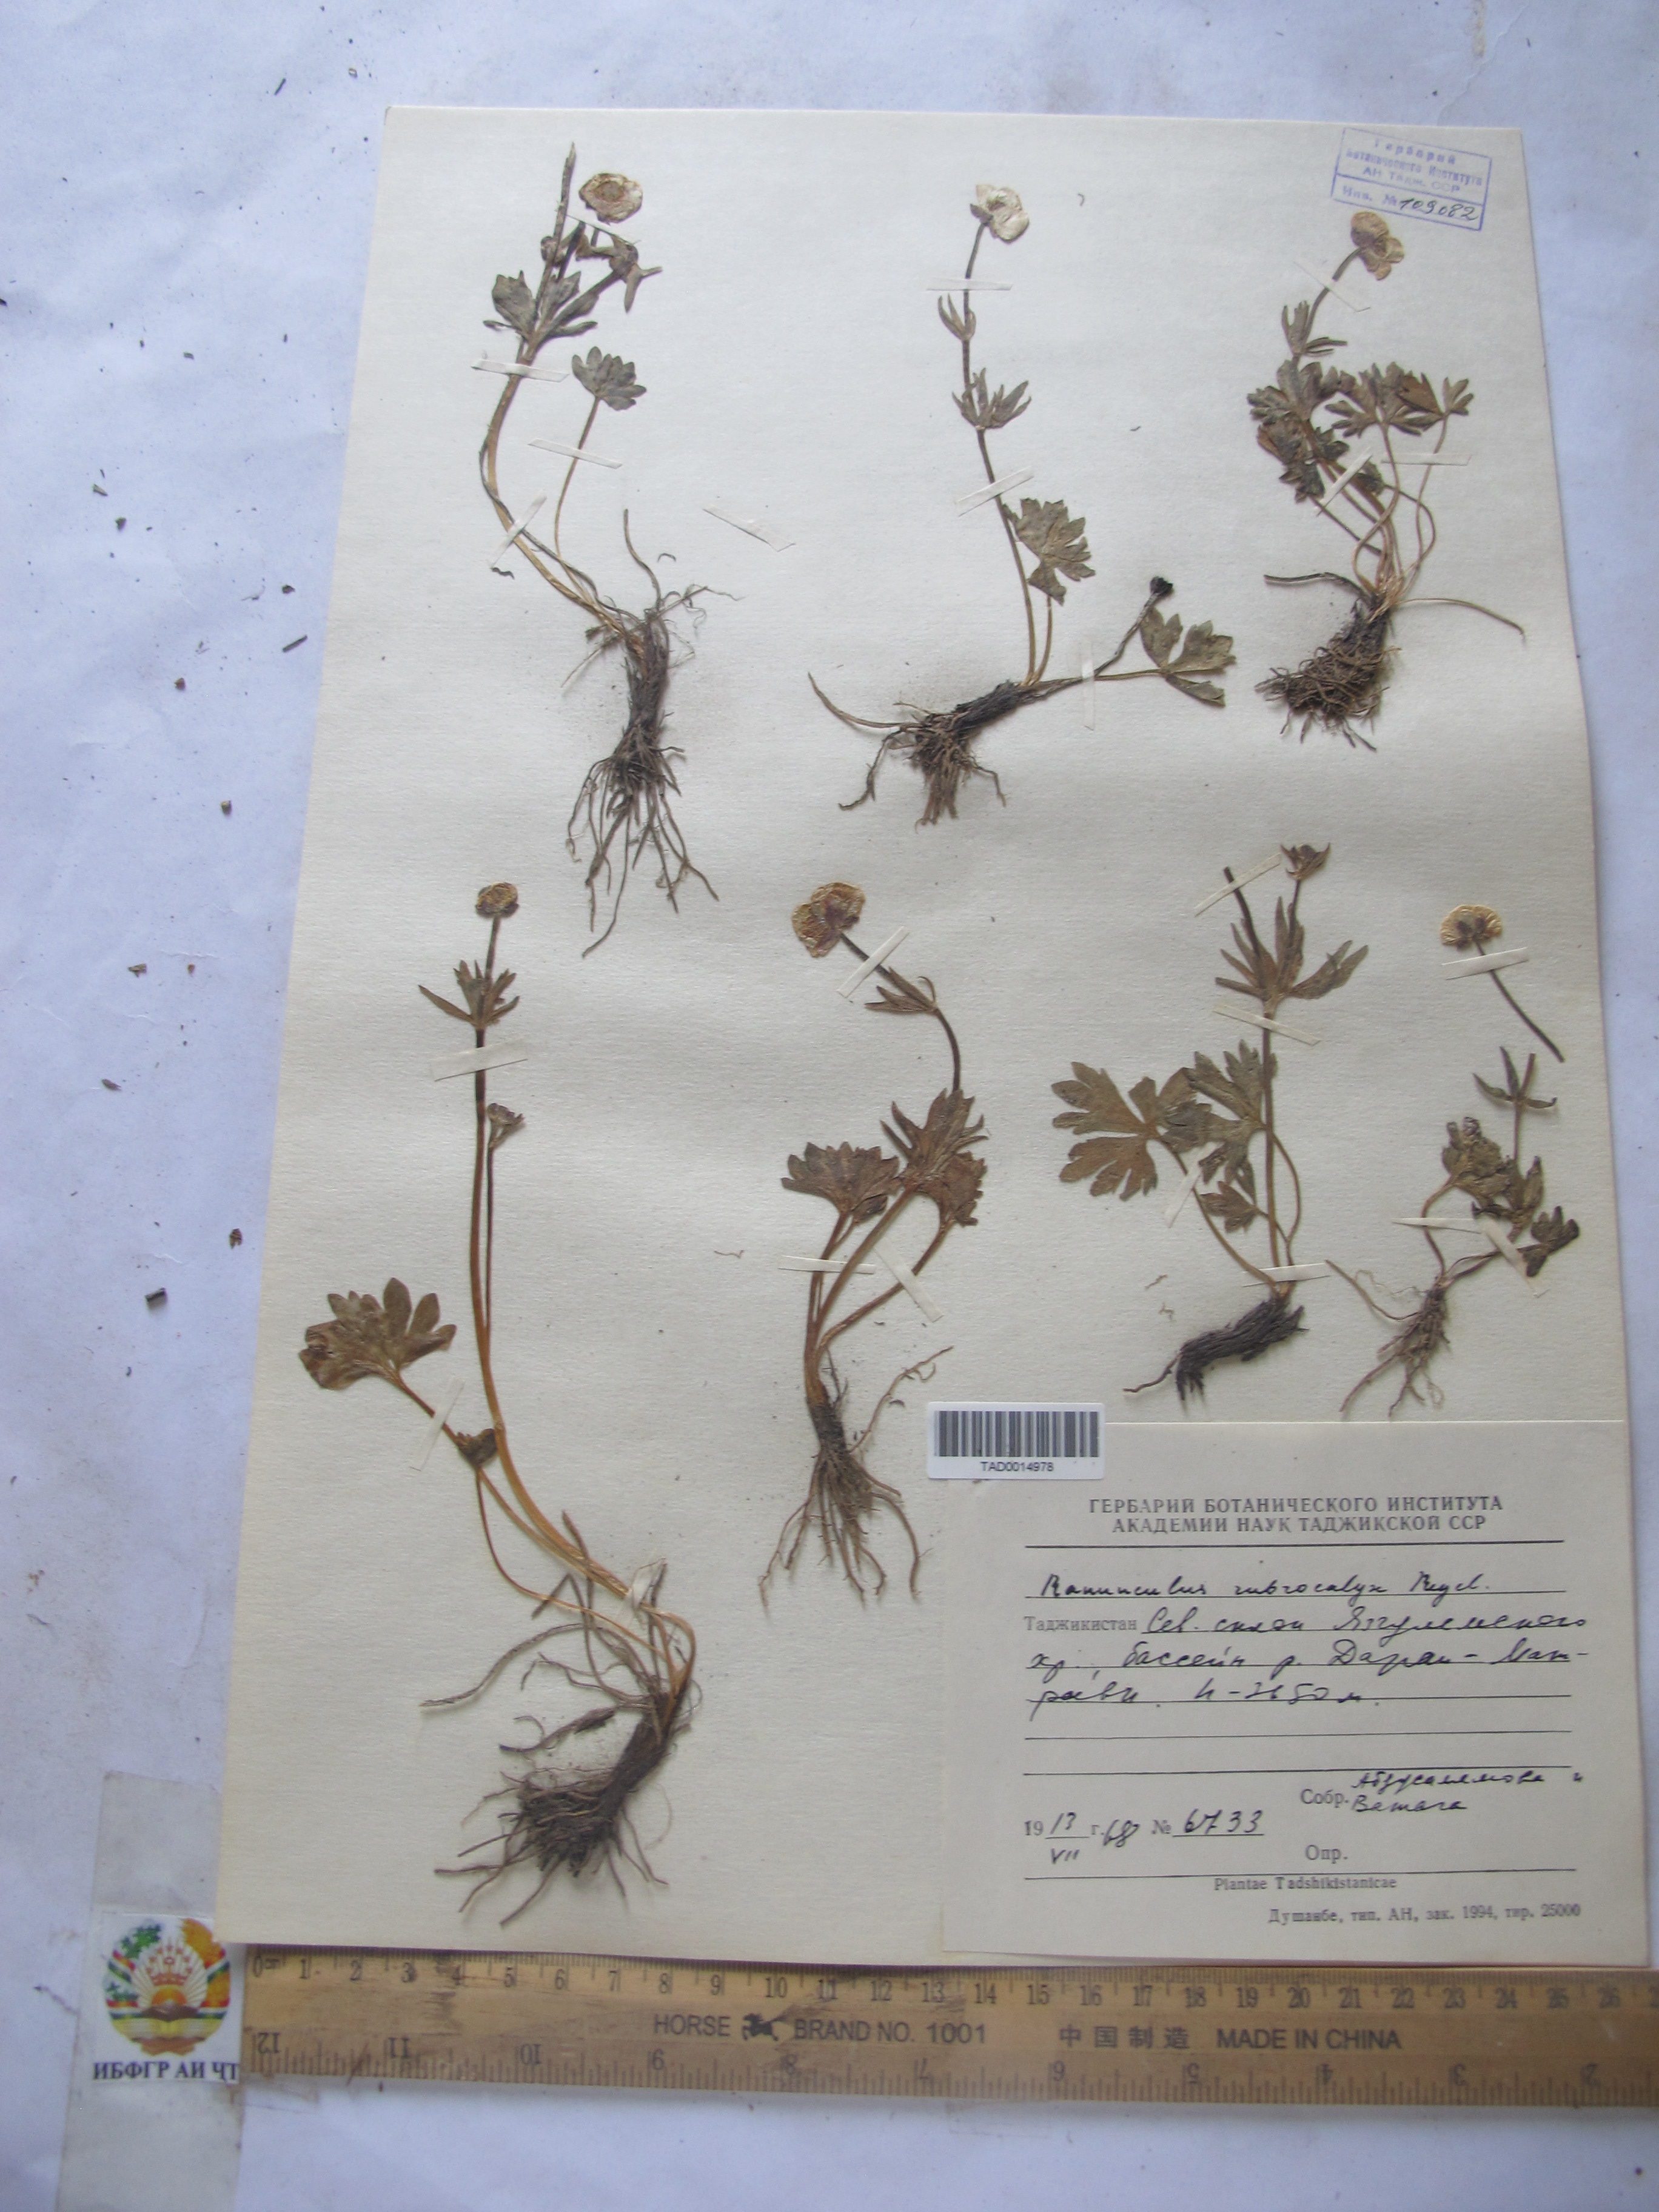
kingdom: Plantae
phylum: Tracheophyta
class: Magnoliopsida
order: Ranunculales
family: Ranunculaceae
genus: Ranunculus
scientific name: Ranunculus rubrocalyx
